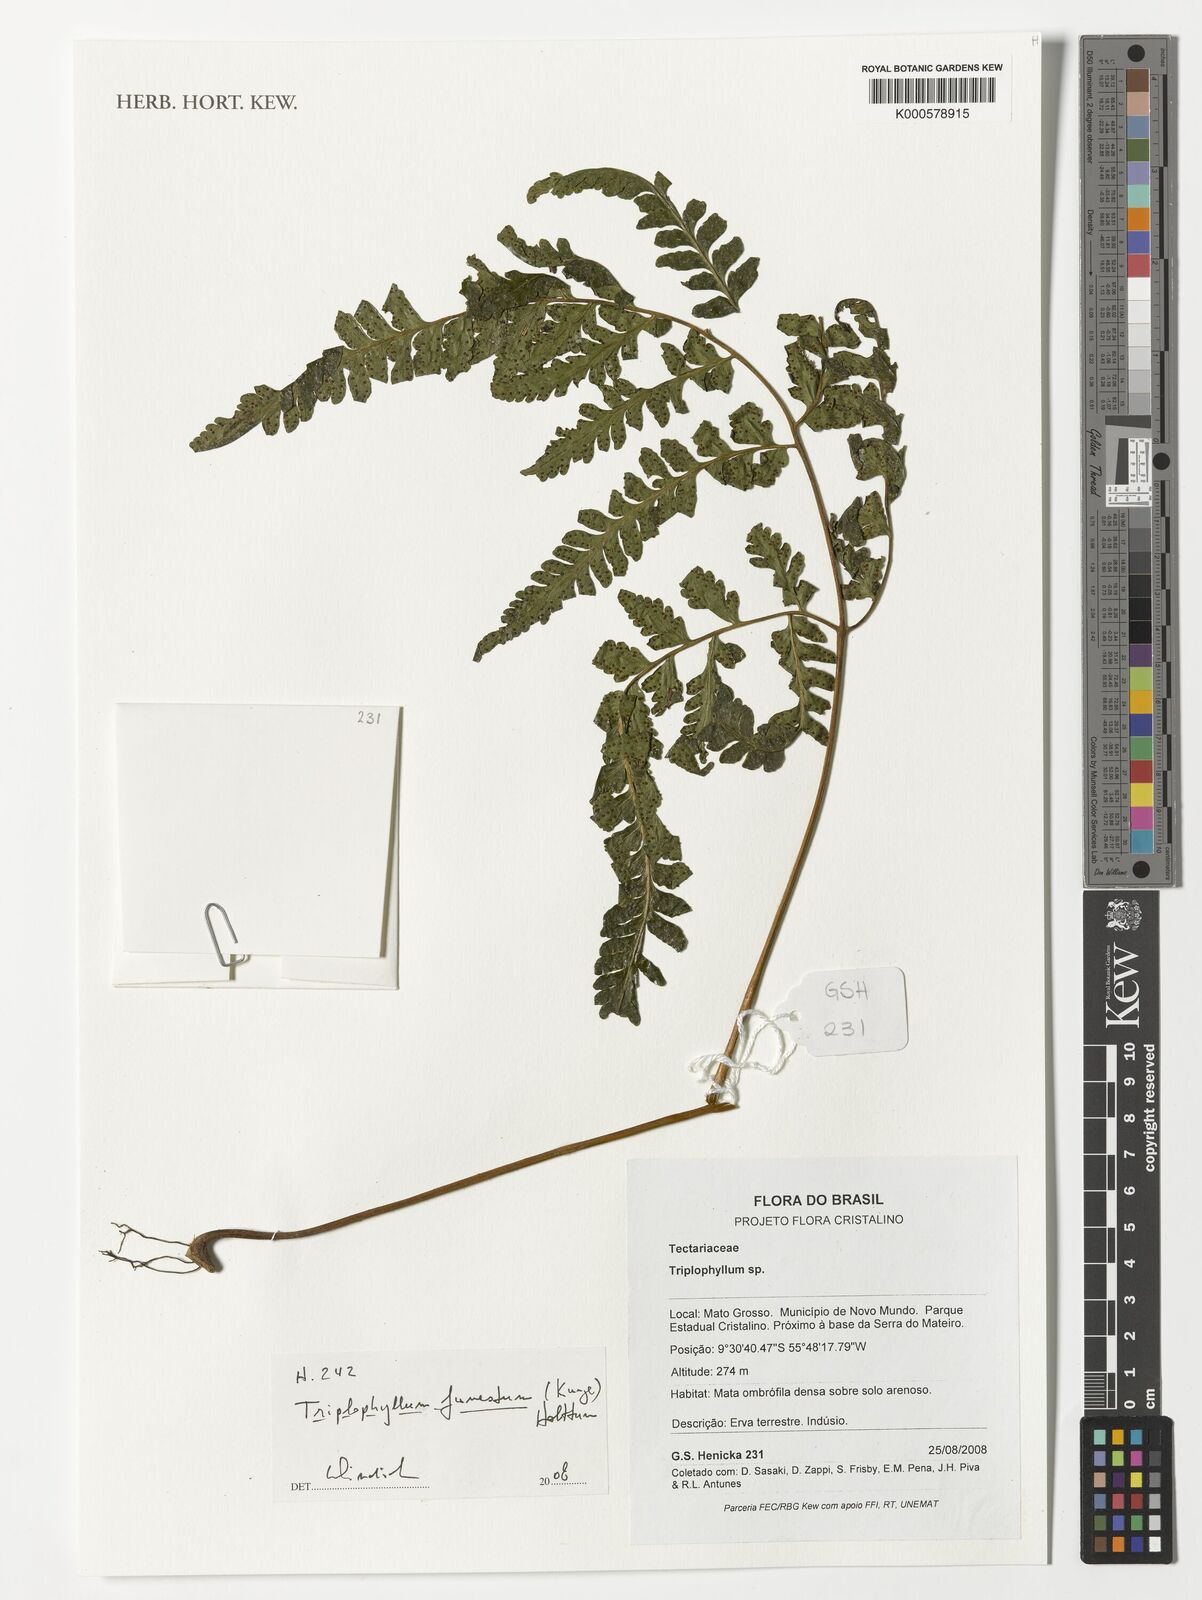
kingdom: Plantae
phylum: Tracheophyta
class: Polypodiopsida
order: Polypodiales
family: Tectariaceae
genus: Triplophyllum
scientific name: Triplophyllum funestum
